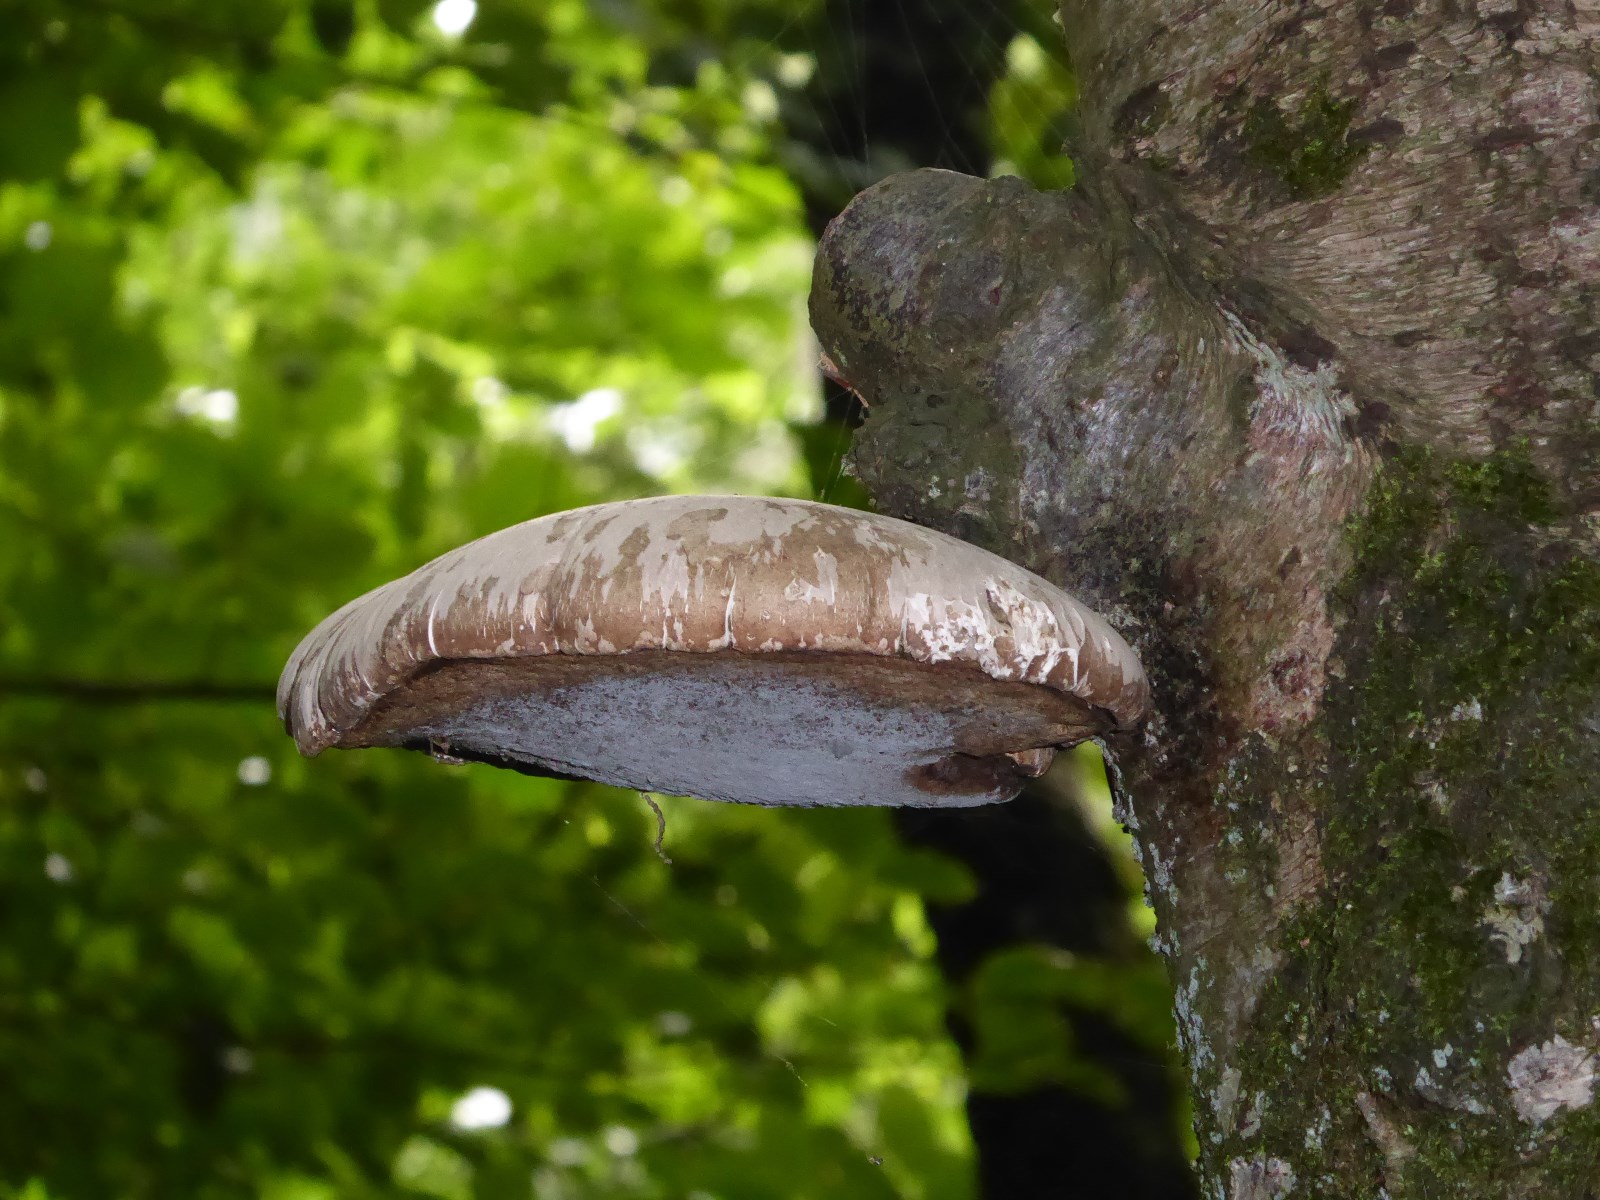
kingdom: Fungi
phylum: Basidiomycota
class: Agaricomycetes
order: Polyporales
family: Fomitopsidaceae
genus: Fomitopsis
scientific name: Fomitopsis betulina
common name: birkeporesvamp
